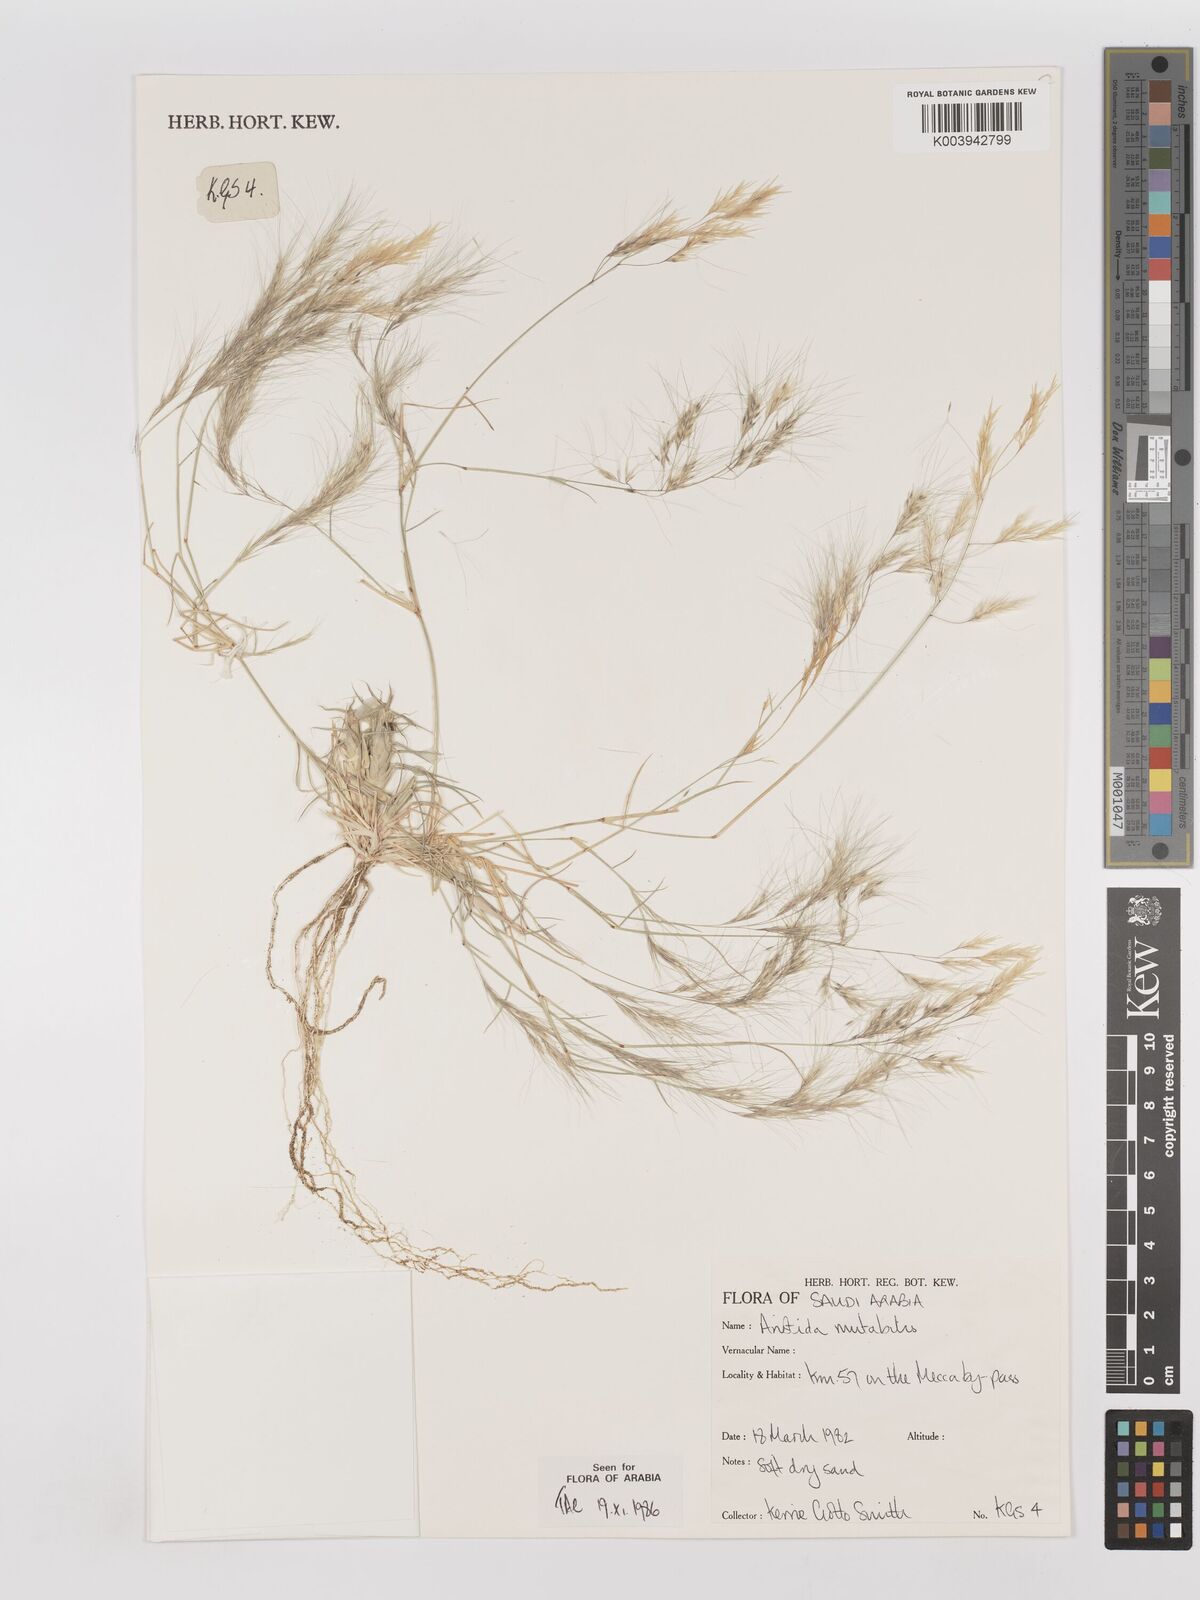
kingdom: Plantae
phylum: Tracheophyta
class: Liliopsida
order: Poales
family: Poaceae
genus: Aristida
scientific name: Aristida mutabilis
